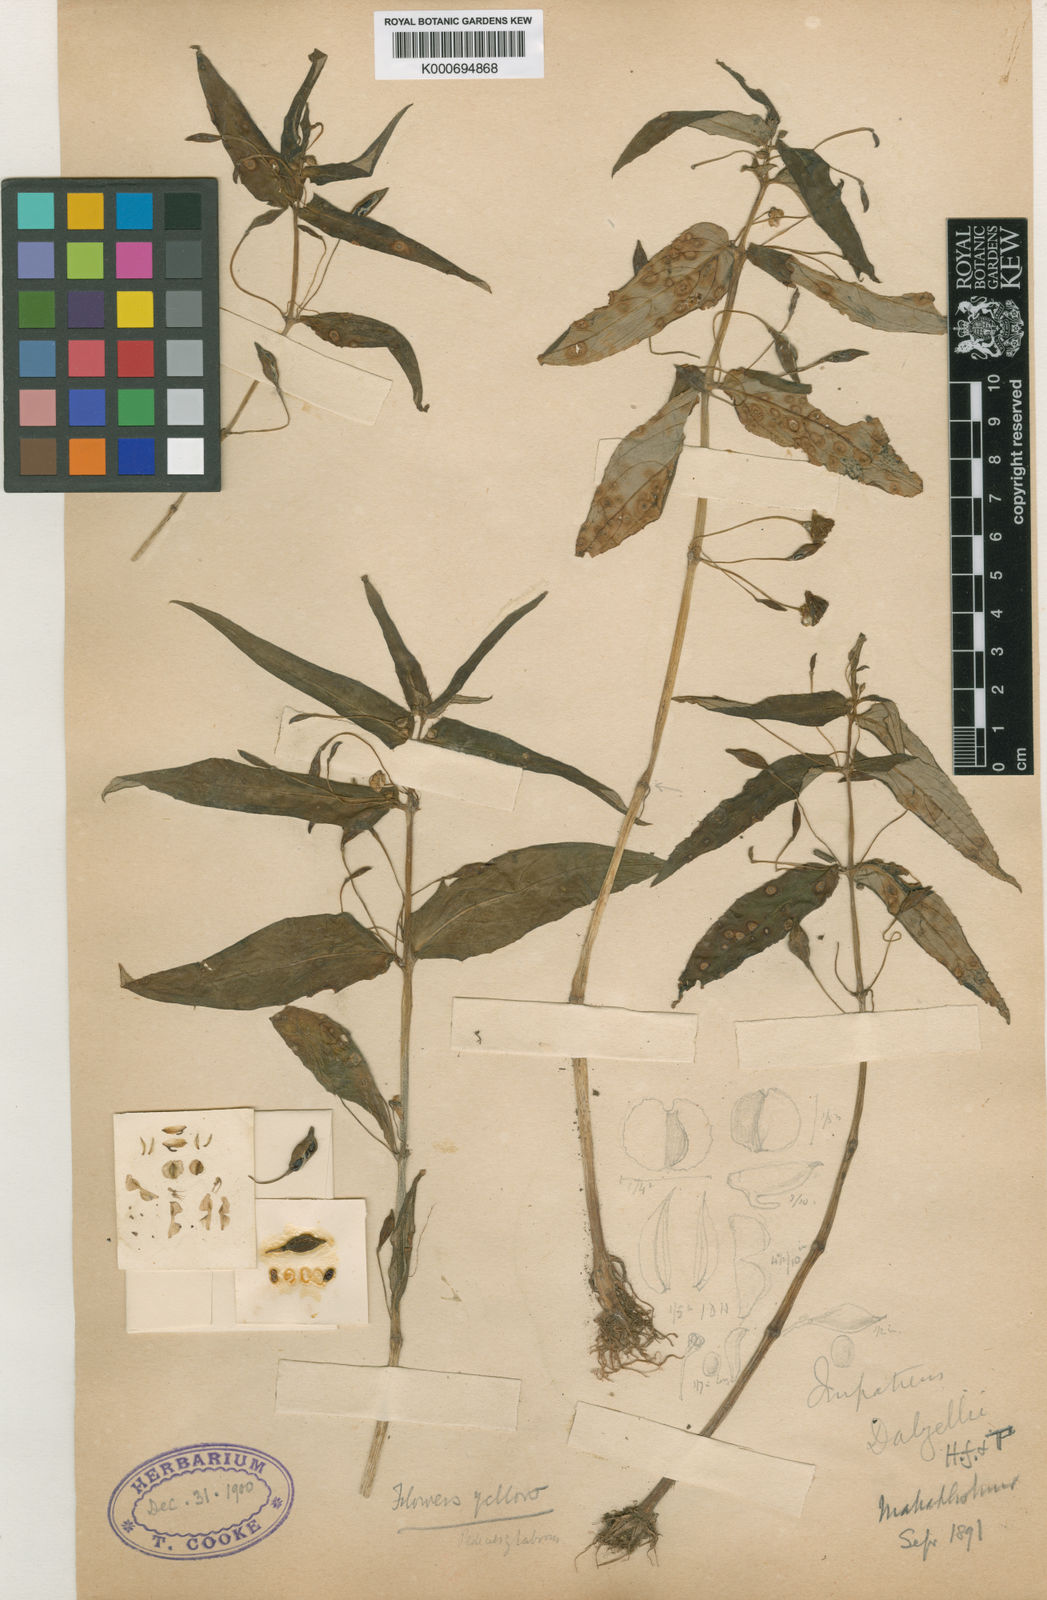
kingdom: Plantae
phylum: Tracheophyta
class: Magnoliopsida
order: Ericales
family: Balsaminaceae
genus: Impatiens
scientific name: Impatiens dalzellii
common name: Dalzell's yellow balsam
